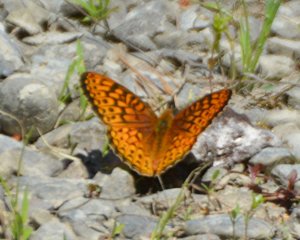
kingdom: Animalia
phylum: Arthropoda
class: Insecta
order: Lepidoptera
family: Nymphalidae
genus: Speyeria
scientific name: Speyeria atlantis
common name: Atlantis Fritillary
